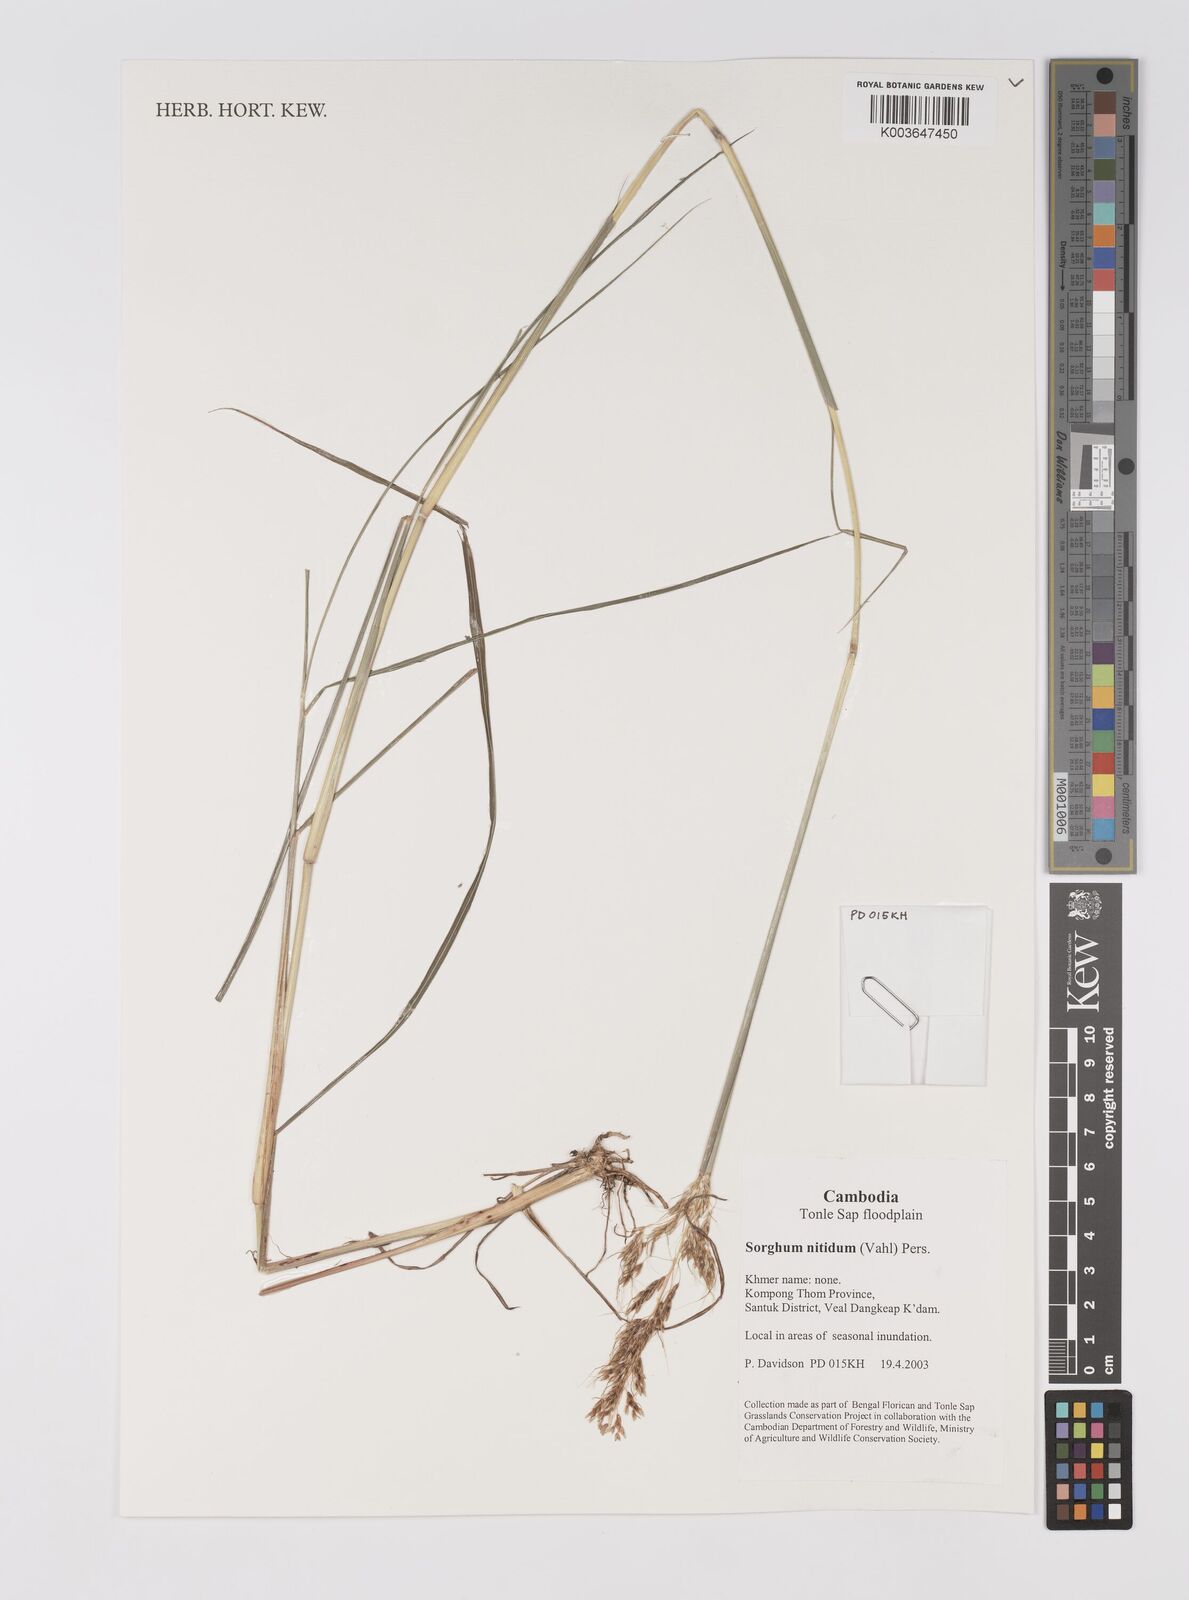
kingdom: Plantae
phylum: Tracheophyta
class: Liliopsida
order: Poales
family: Poaceae
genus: Sorghum
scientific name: Sorghum nitidum
